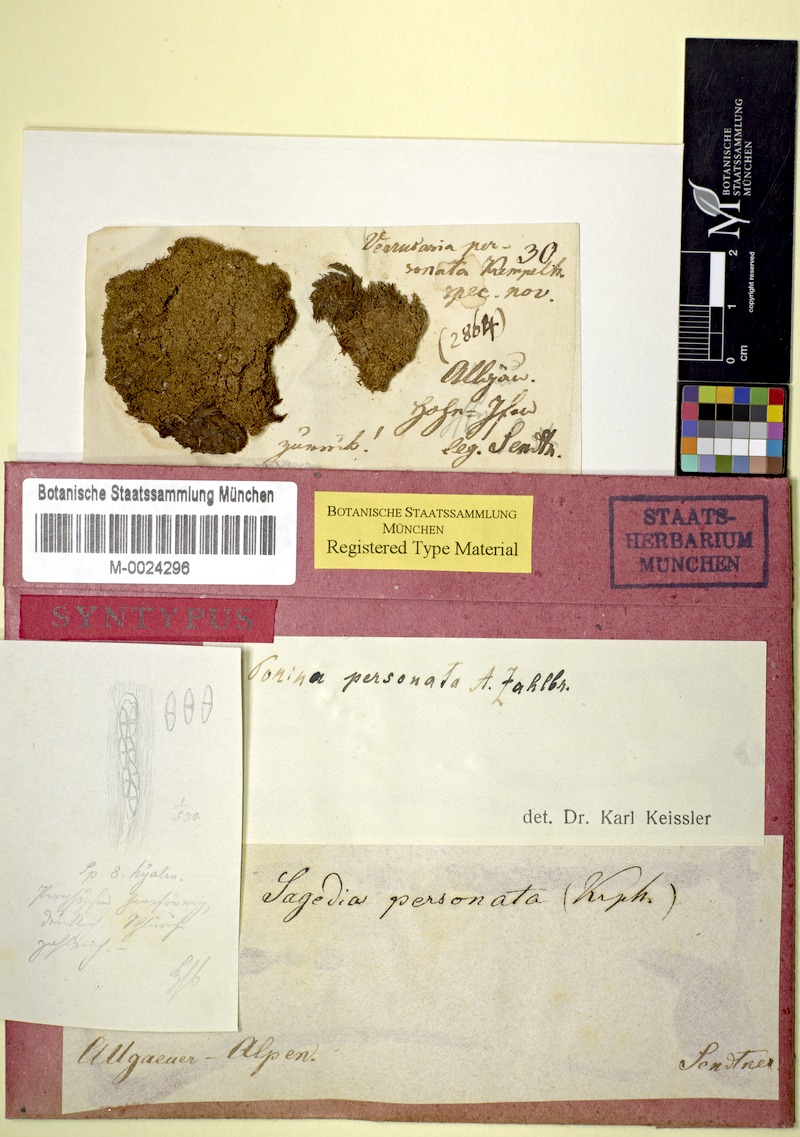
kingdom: Fungi
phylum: Ascomycota
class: Lecanoromycetes
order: Ostropales
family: Porinaceae
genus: Porina
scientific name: Porina personata
